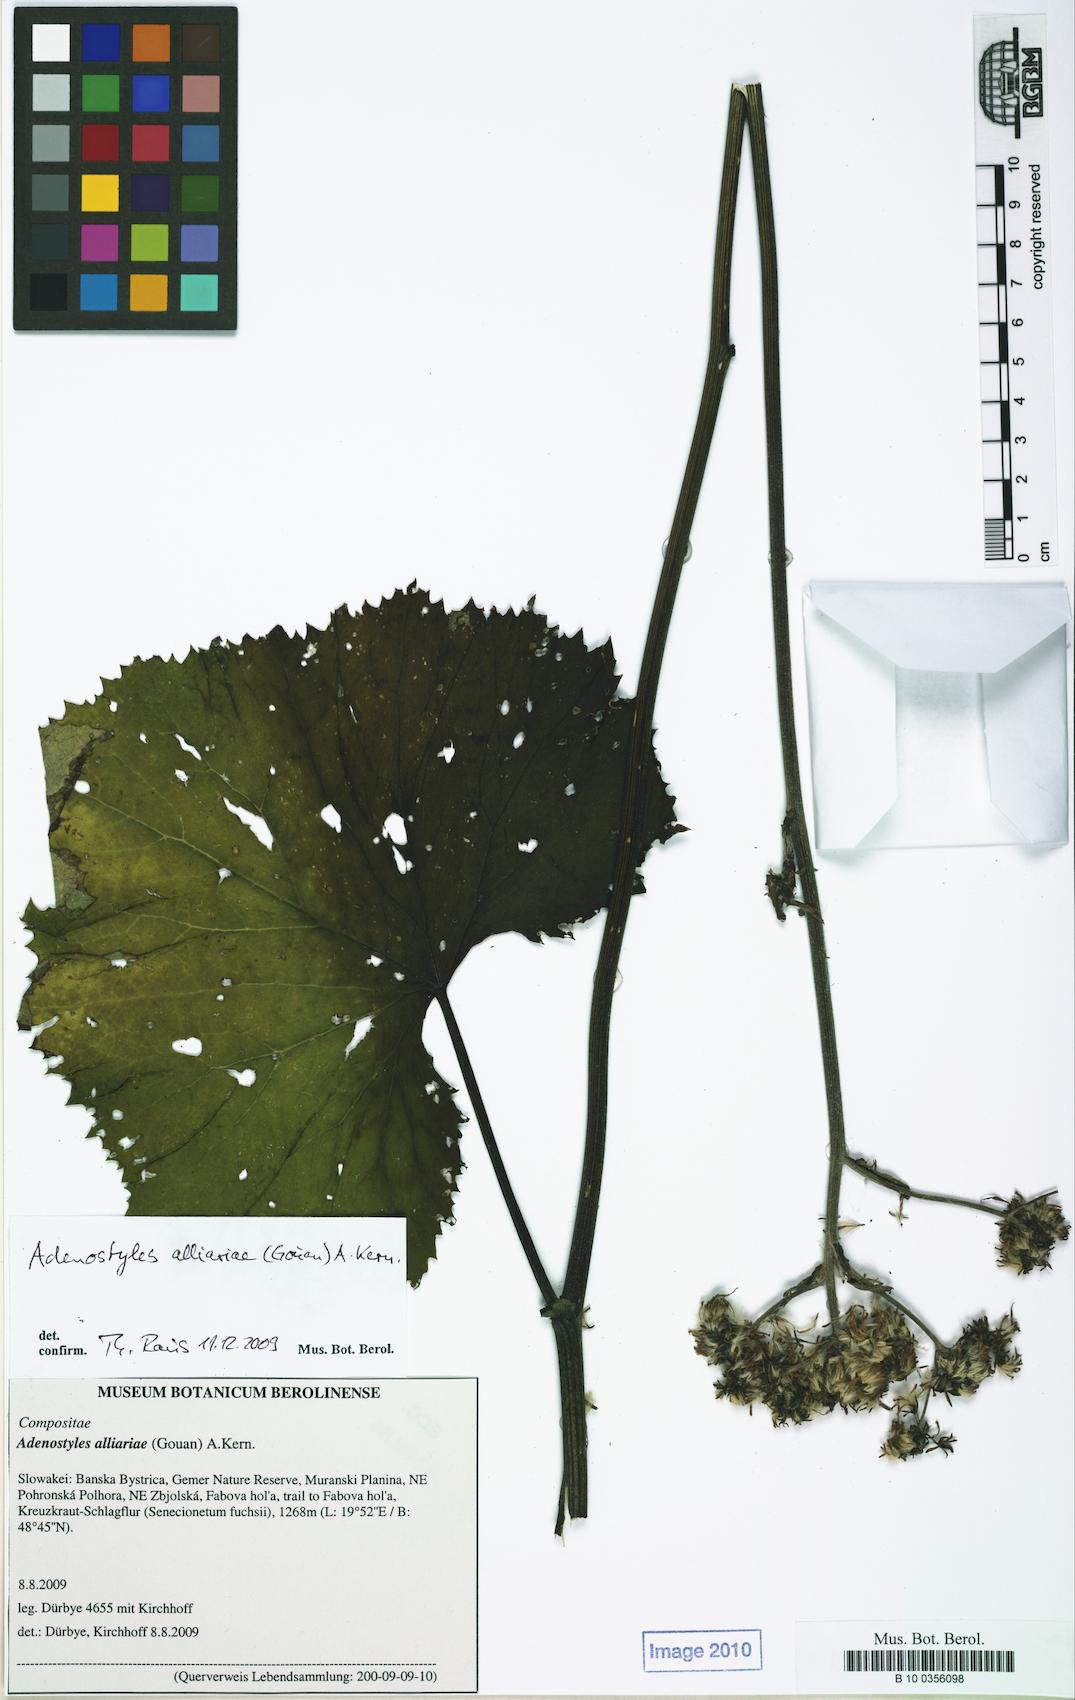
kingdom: Plantae
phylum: Tracheophyta
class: Magnoliopsida
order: Asterales
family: Asteraceae
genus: Adenostyles
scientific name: Adenostyles alliariae
